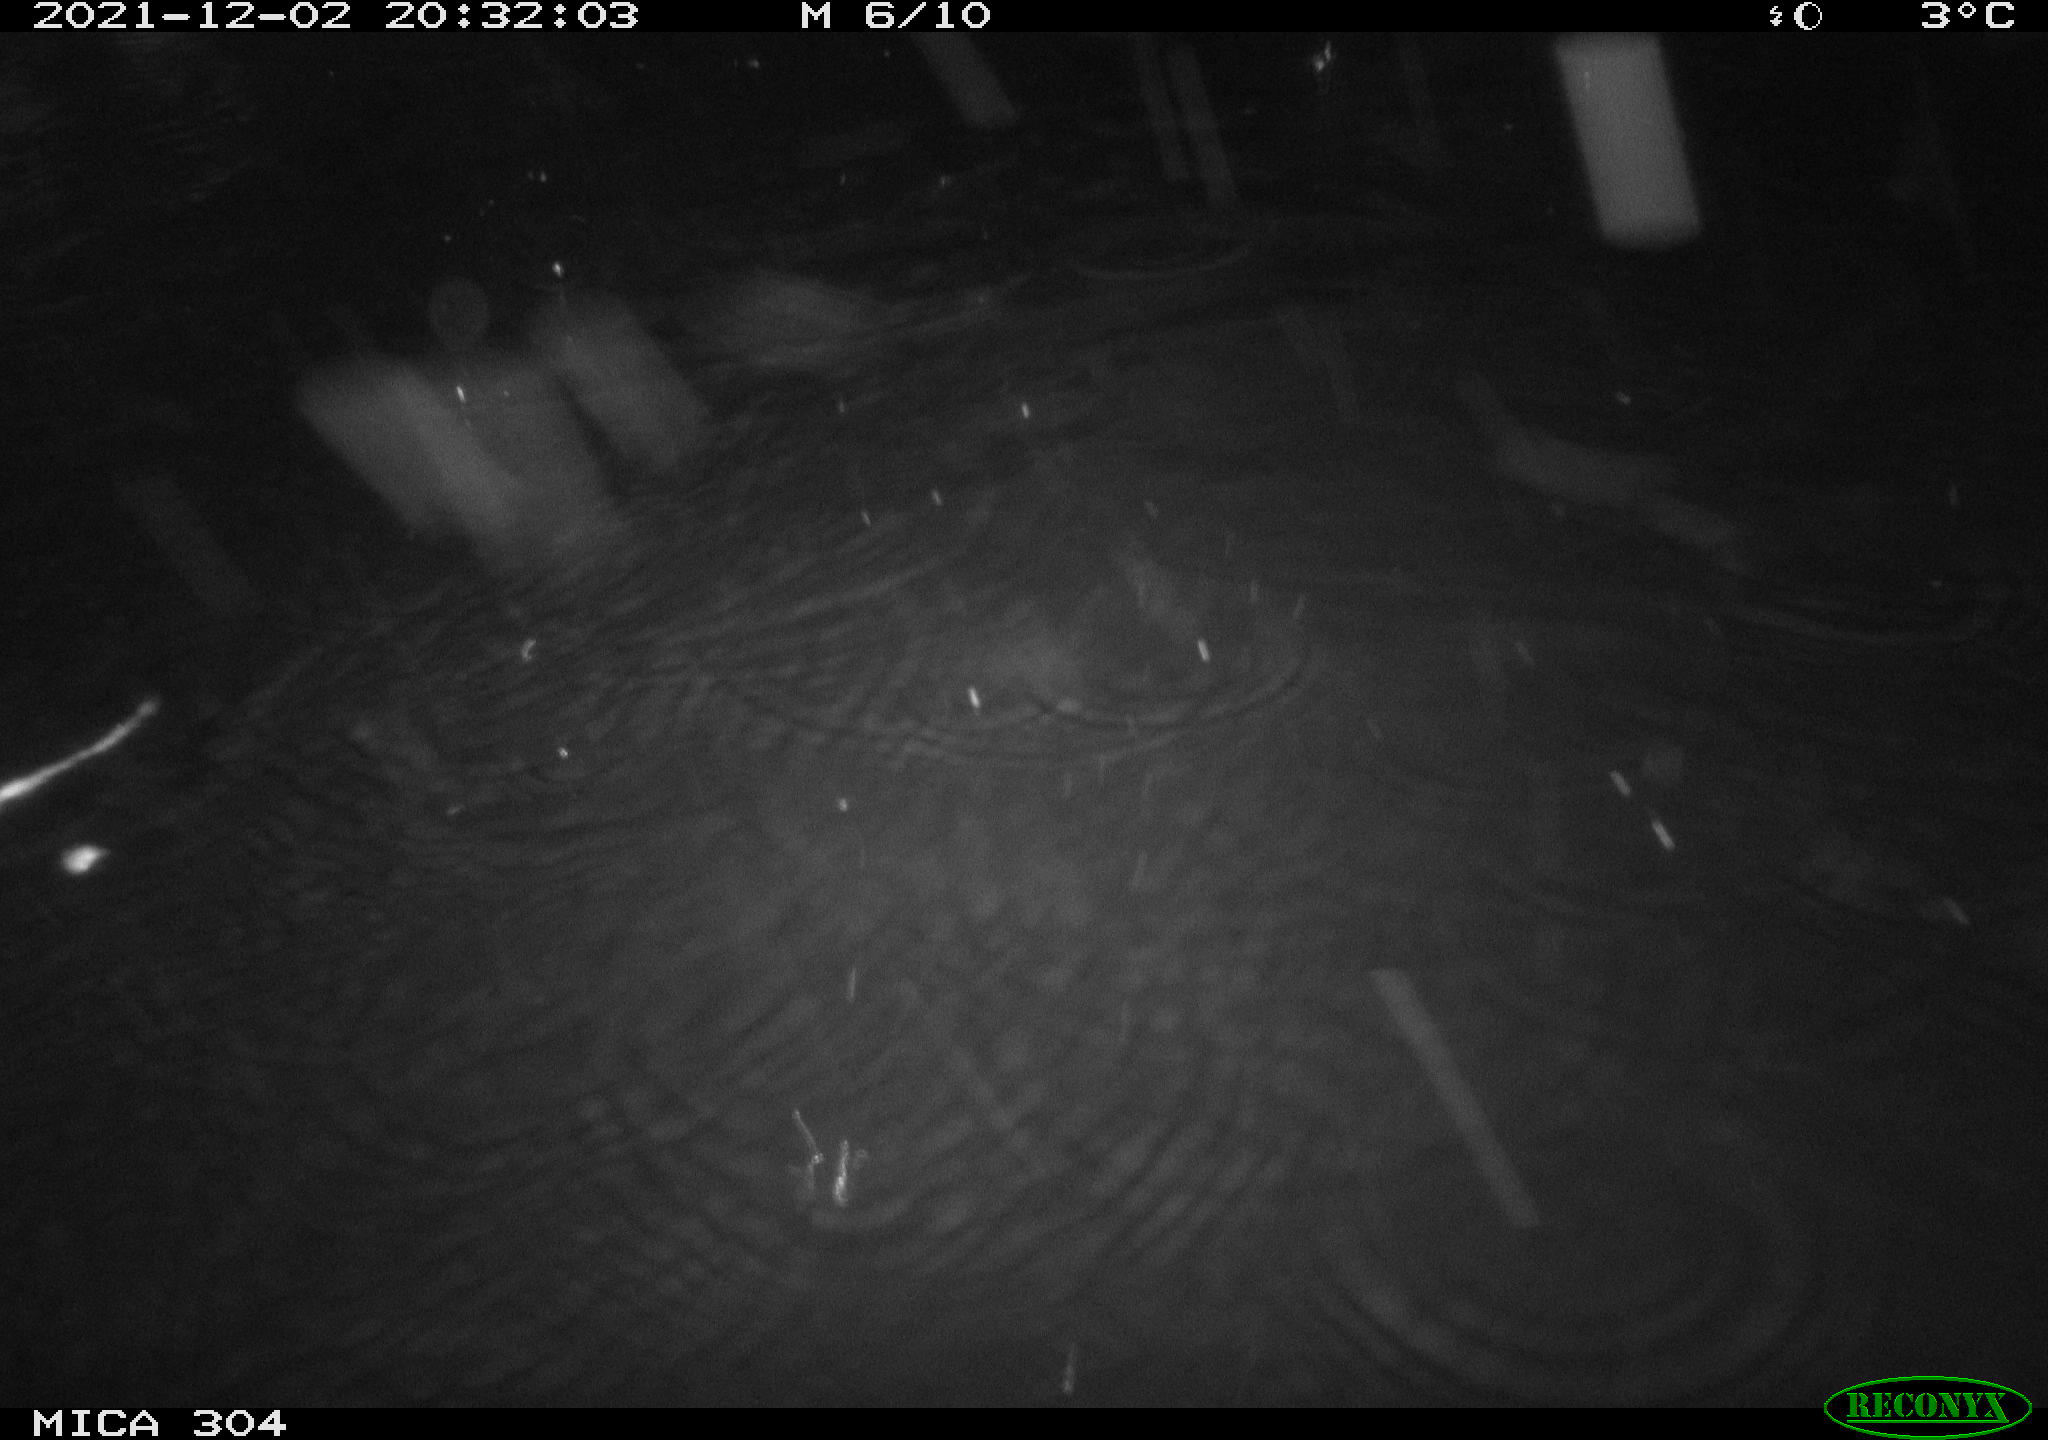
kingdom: Animalia
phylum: Chordata
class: Mammalia
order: Rodentia
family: Muridae
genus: Rattus
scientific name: Rattus norvegicus
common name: Brown rat
